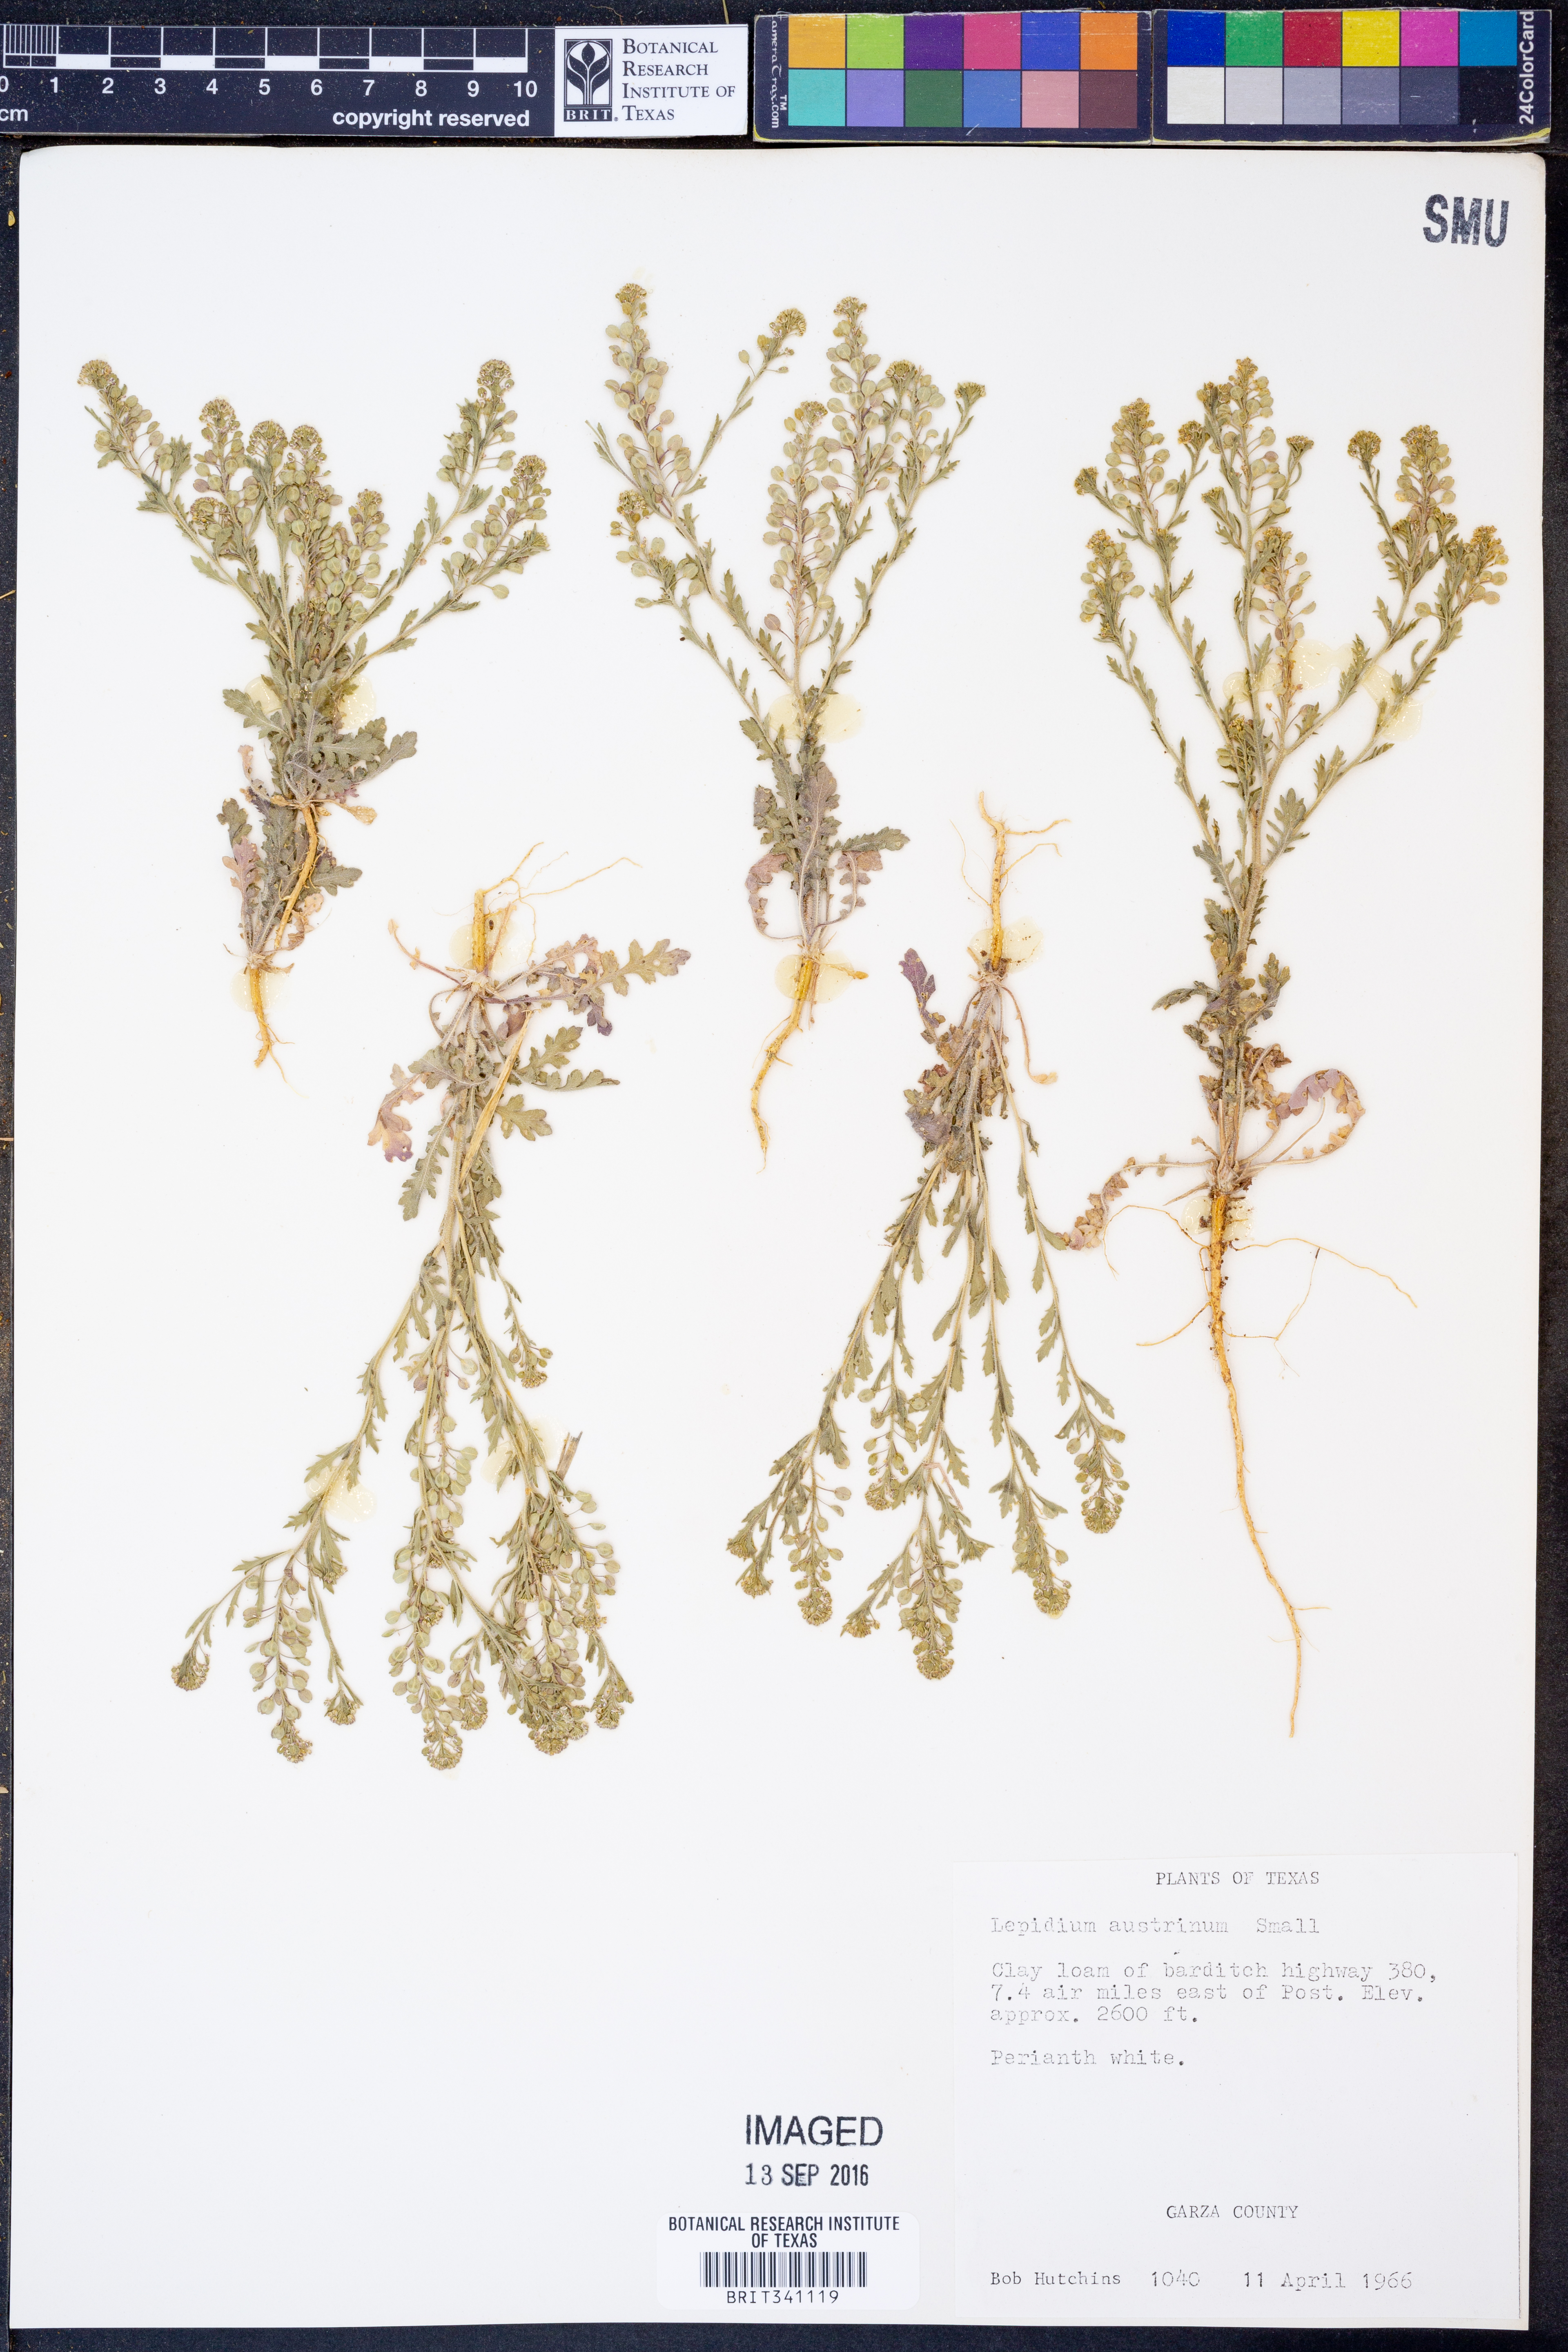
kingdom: Plantae
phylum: Tracheophyta
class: Magnoliopsida
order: Brassicales
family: Brassicaceae
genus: Lepidium
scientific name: Lepidium austrinum
